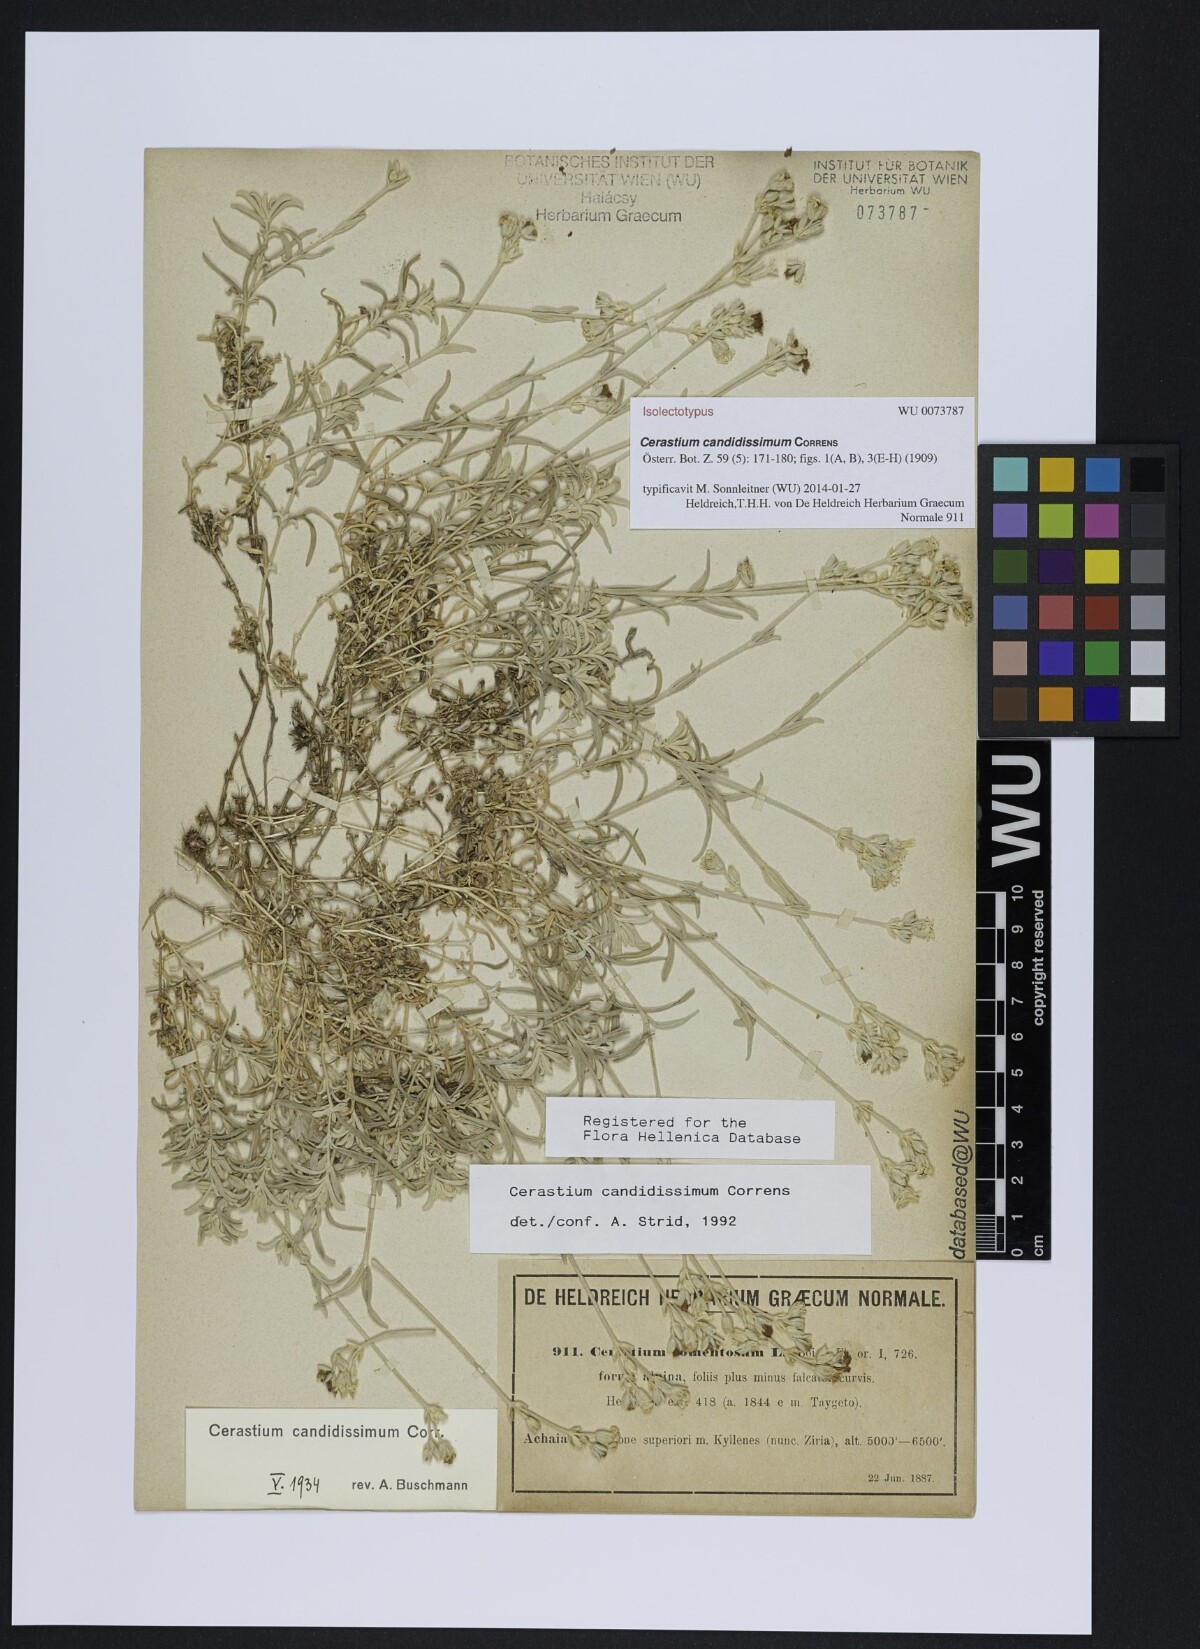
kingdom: Plantae
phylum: Tracheophyta
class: Magnoliopsida
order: Caryophyllales
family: Caryophyllaceae
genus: Cerastium
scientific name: Cerastium candidissimum
